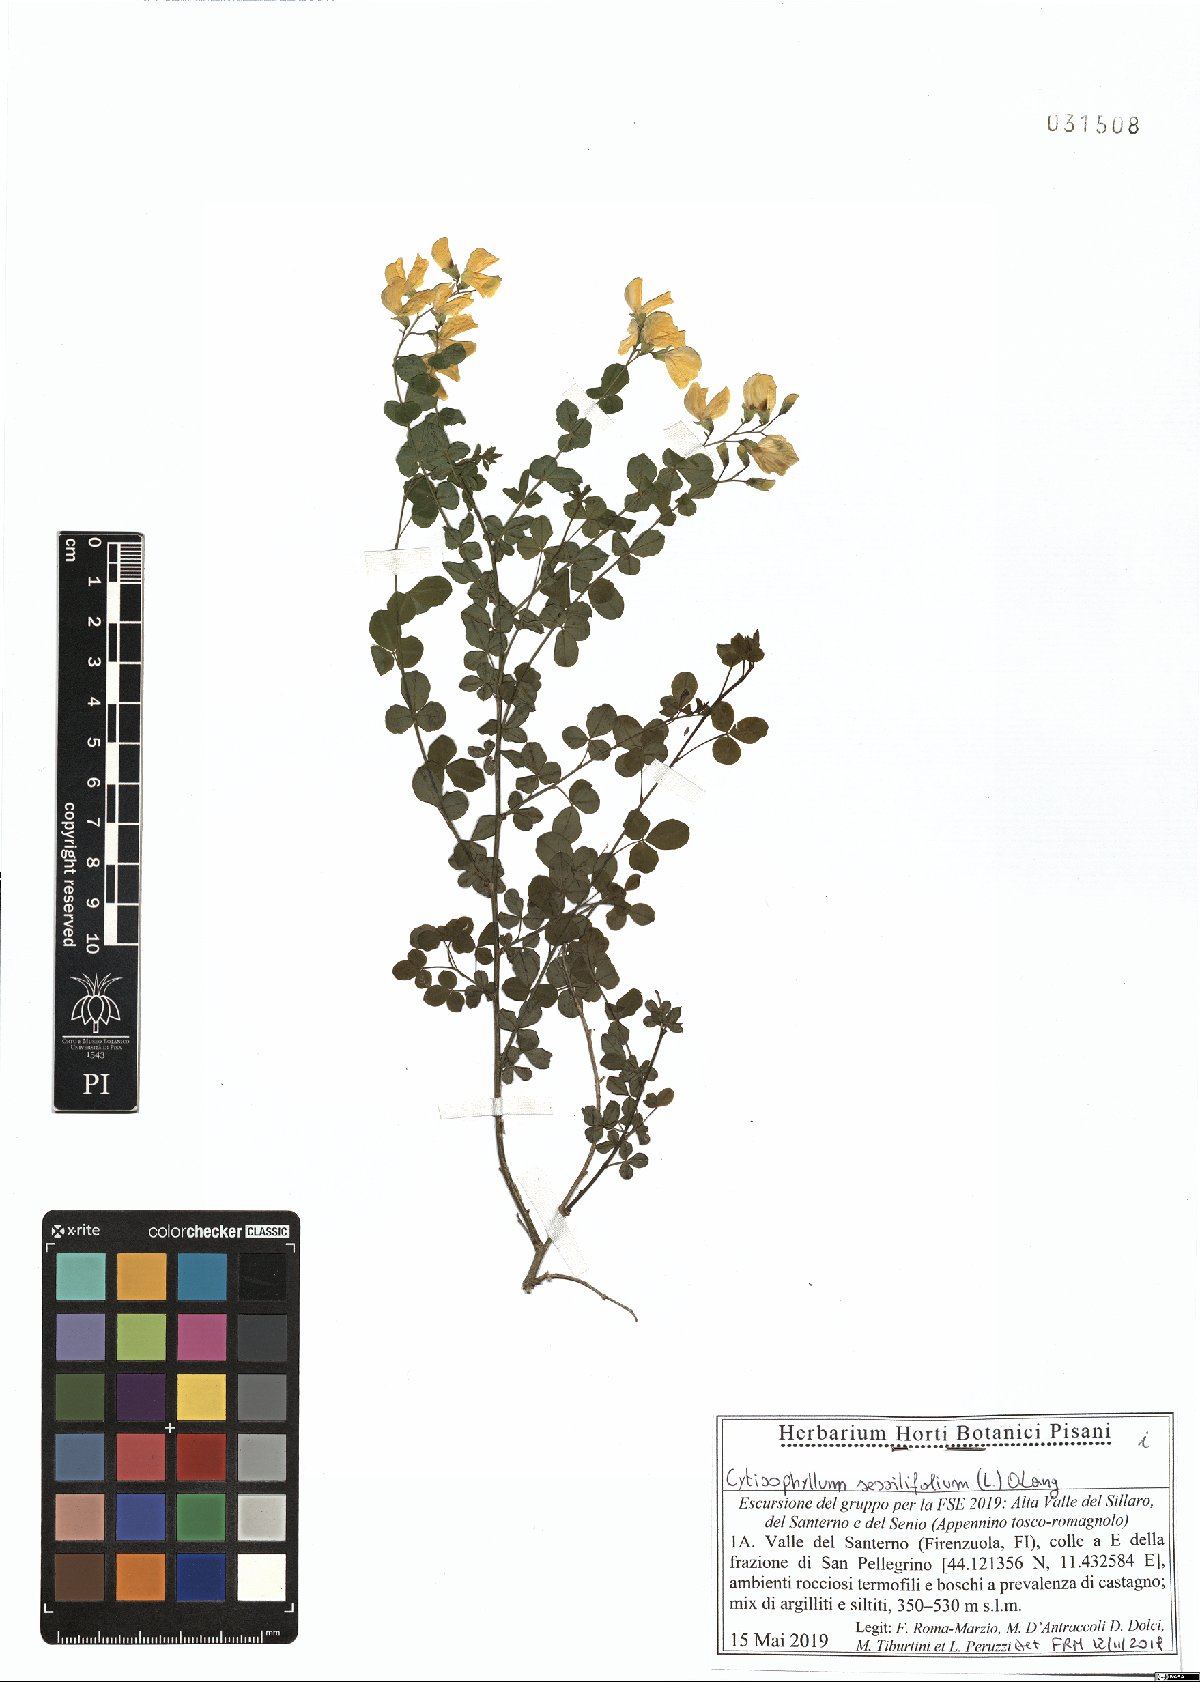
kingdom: Plantae
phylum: Tracheophyta
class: Magnoliopsida
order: Fabales
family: Fabaceae
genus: Cytisophyllum
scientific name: Cytisophyllum sessilifolium
